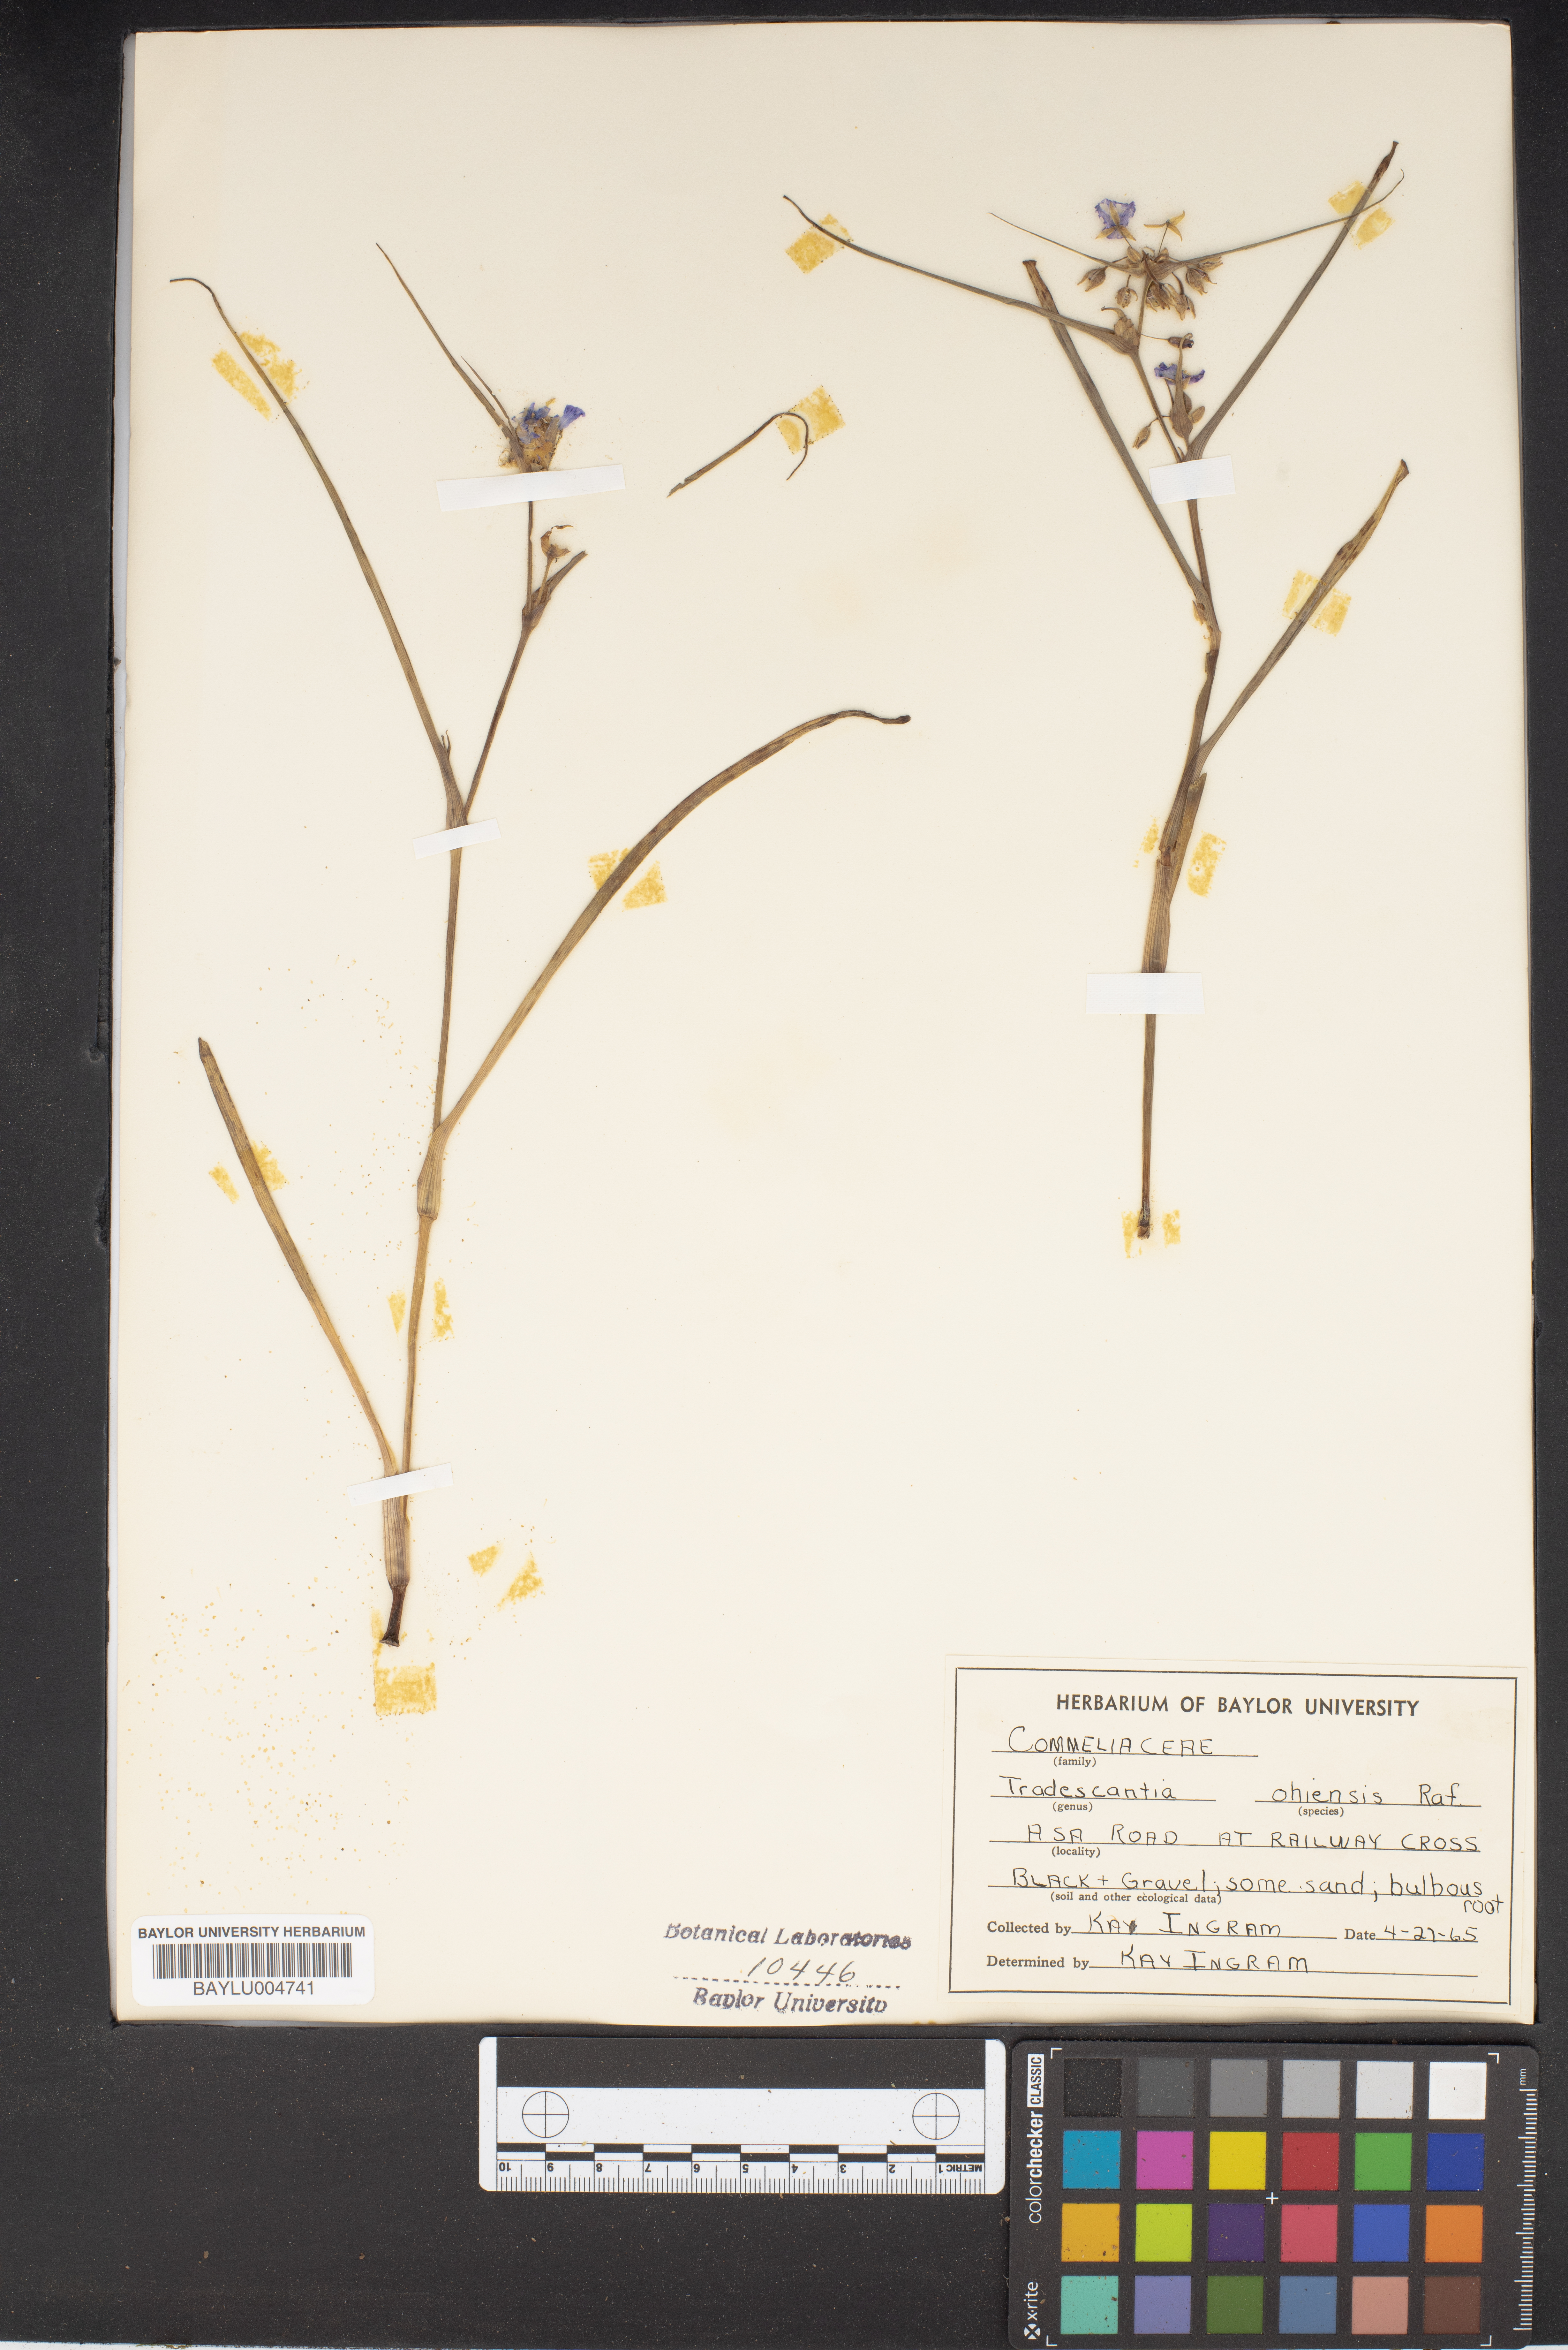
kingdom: Plantae
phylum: Tracheophyta
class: Liliopsida
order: Commelinales
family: Commelinaceae
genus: Tradescantia
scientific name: Tradescantia ohiensis
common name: Ohio spiderwort
